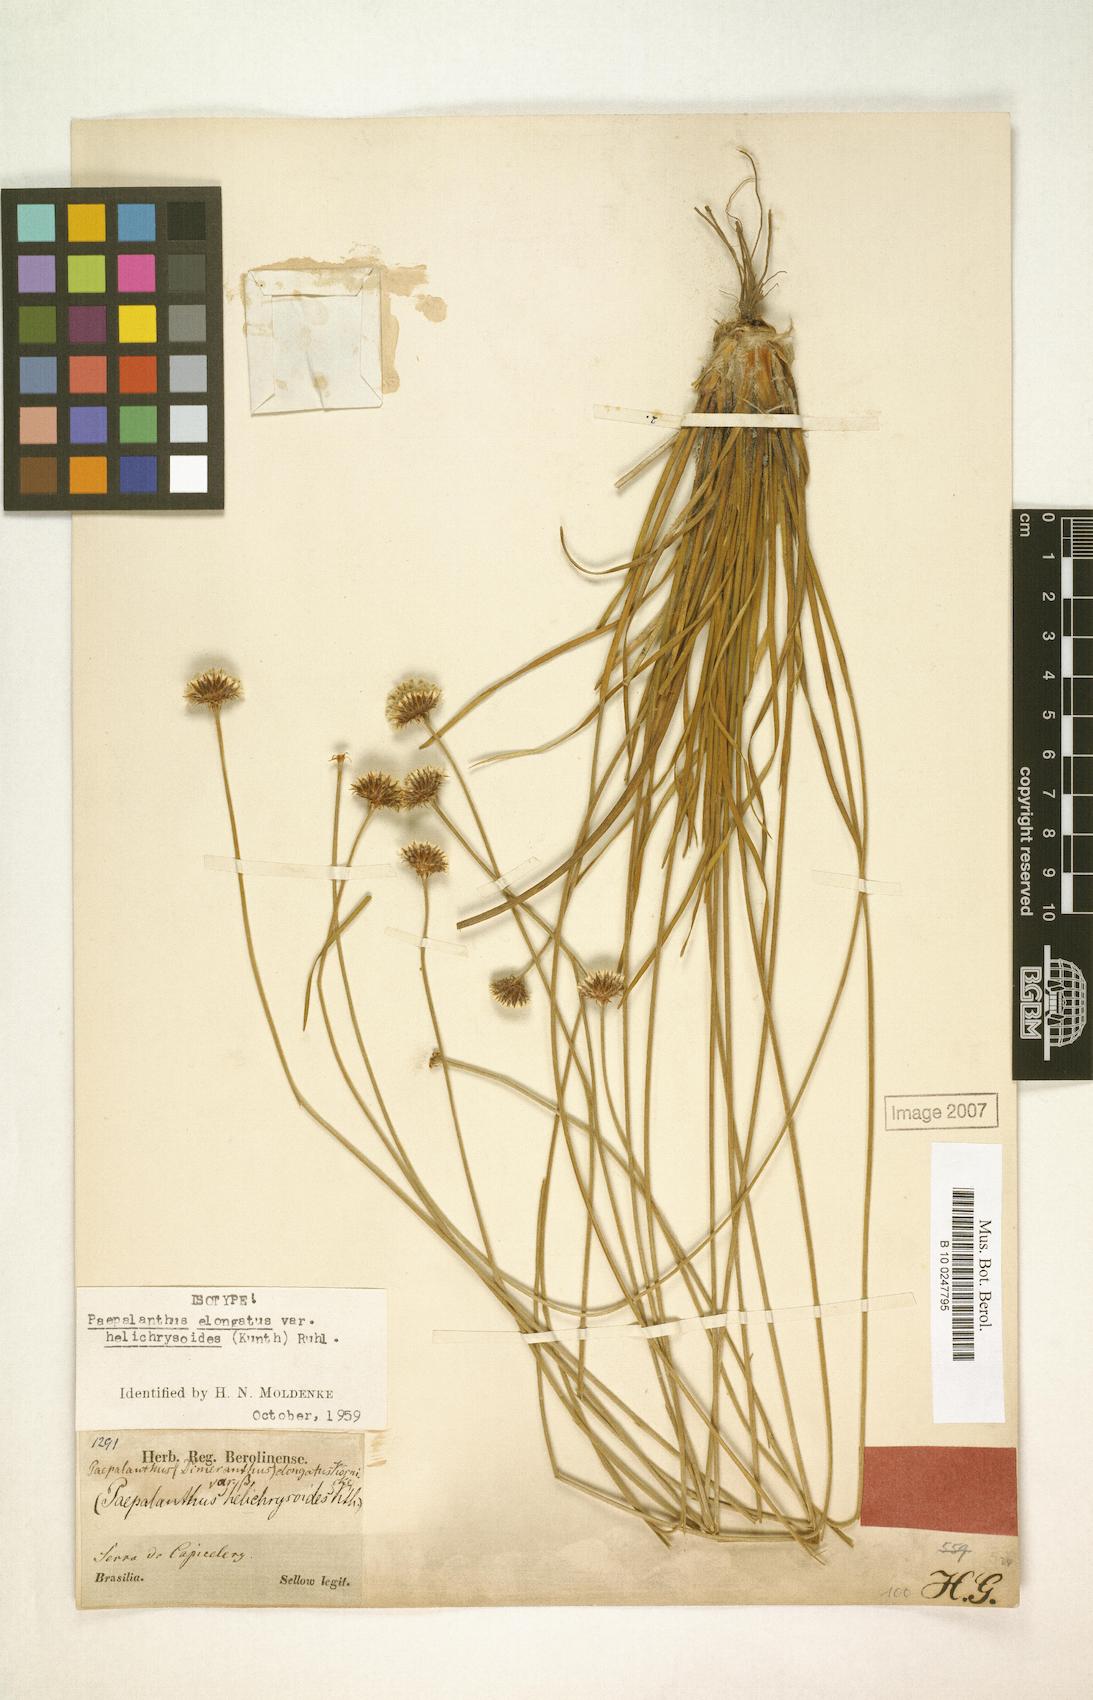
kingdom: Plantae
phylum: Tracheophyta
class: Liliopsida
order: Poales
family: Eriocaulaceae
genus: Paepalanthus
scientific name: Paepalanthus elongatus
